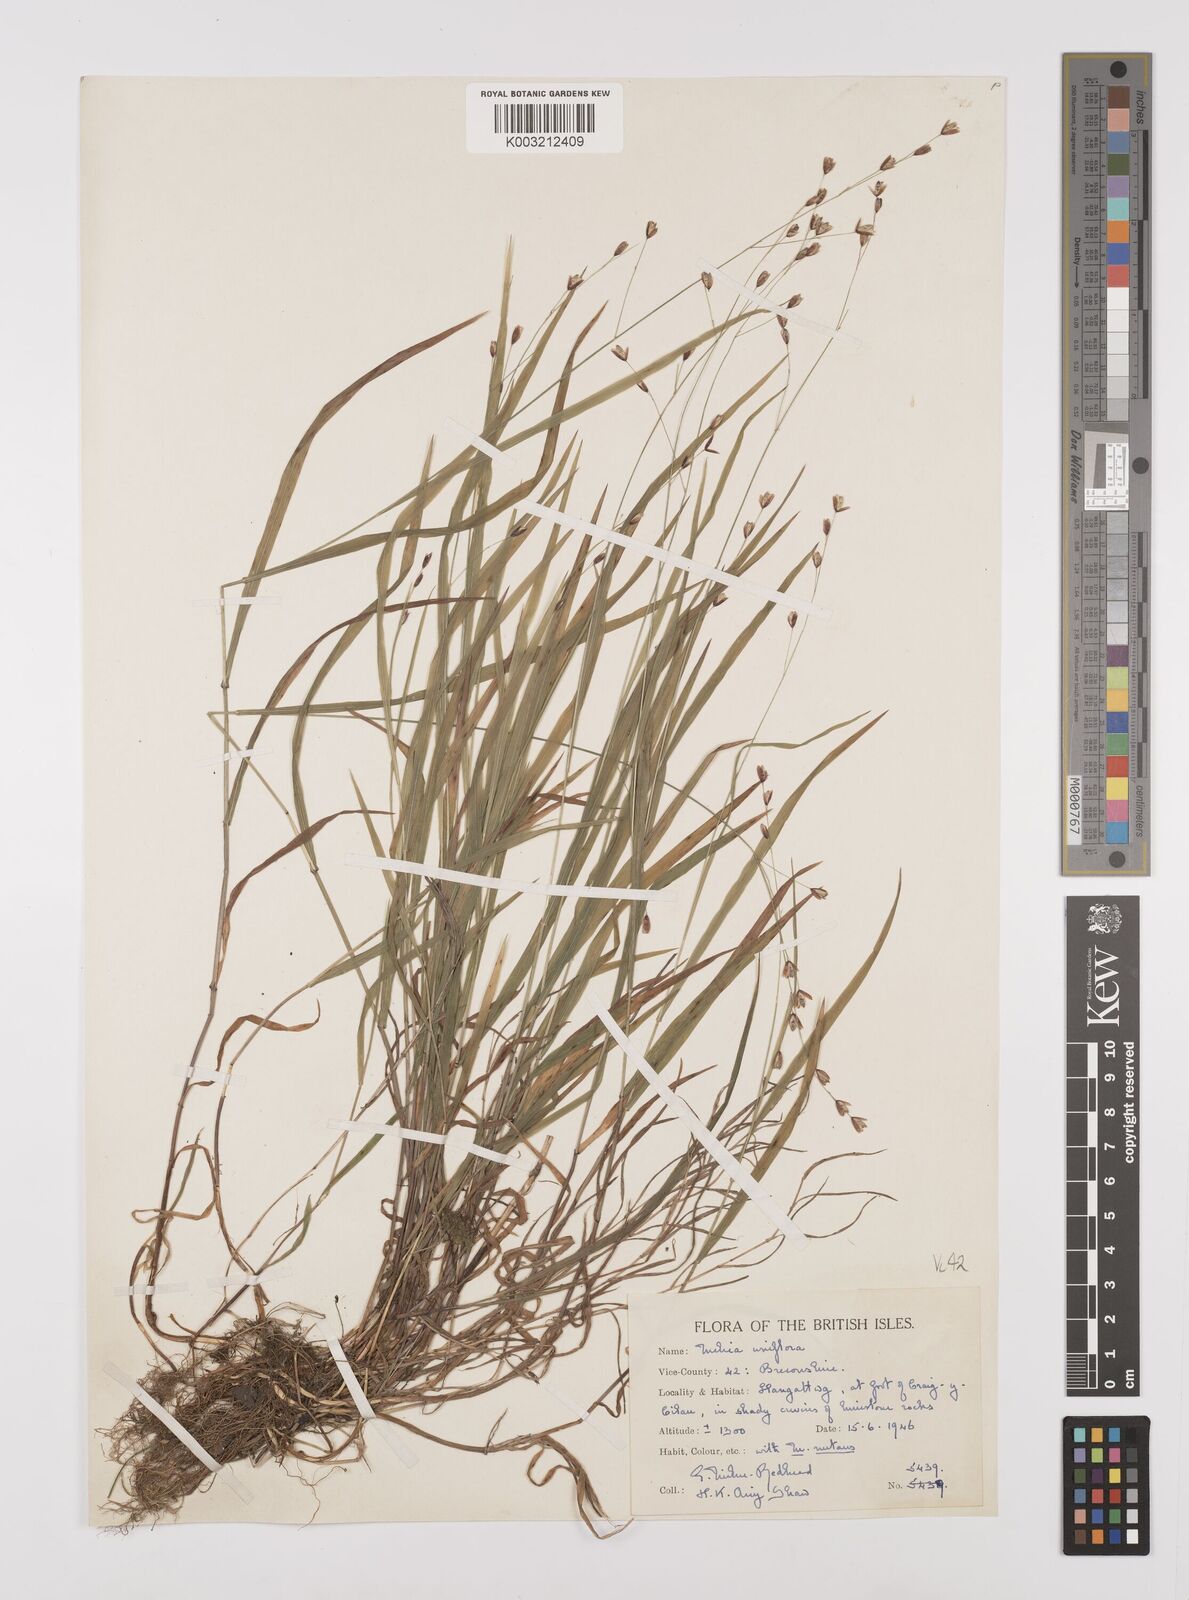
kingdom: Plantae
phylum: Tracheophyta
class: Liliopsida
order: Poales
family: Poaceae
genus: Melica
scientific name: Melica uniflora
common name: Wood melick
